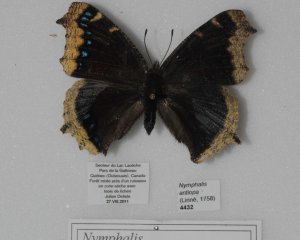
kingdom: Animalia
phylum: Arthropoda
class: Insecta
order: Lepidoptera
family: Nymphalidae
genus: Nymphalis
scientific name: Nymphalis antiopa
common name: Mourning Cloak
